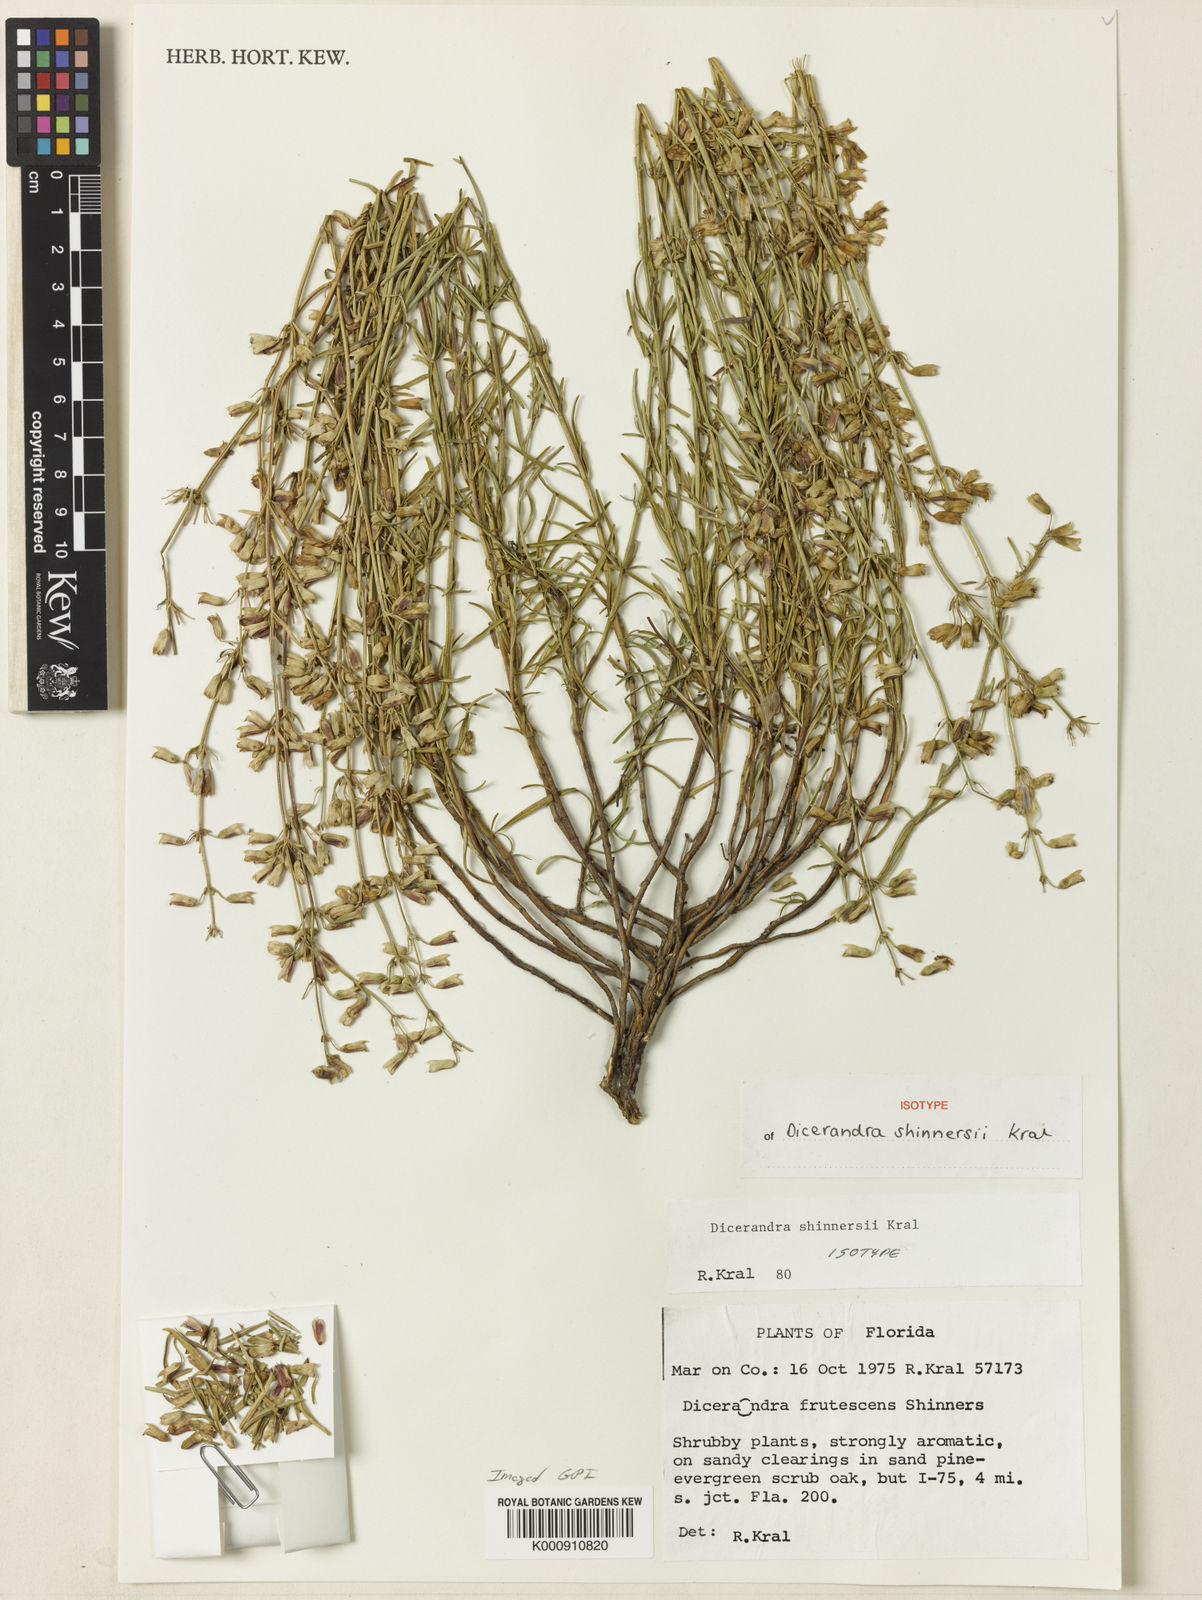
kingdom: Plantae
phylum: Tracheophyta
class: Magnoliopsida
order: Lamiales
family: Lamiaceae
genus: Dicerandra
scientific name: Dicerandra
